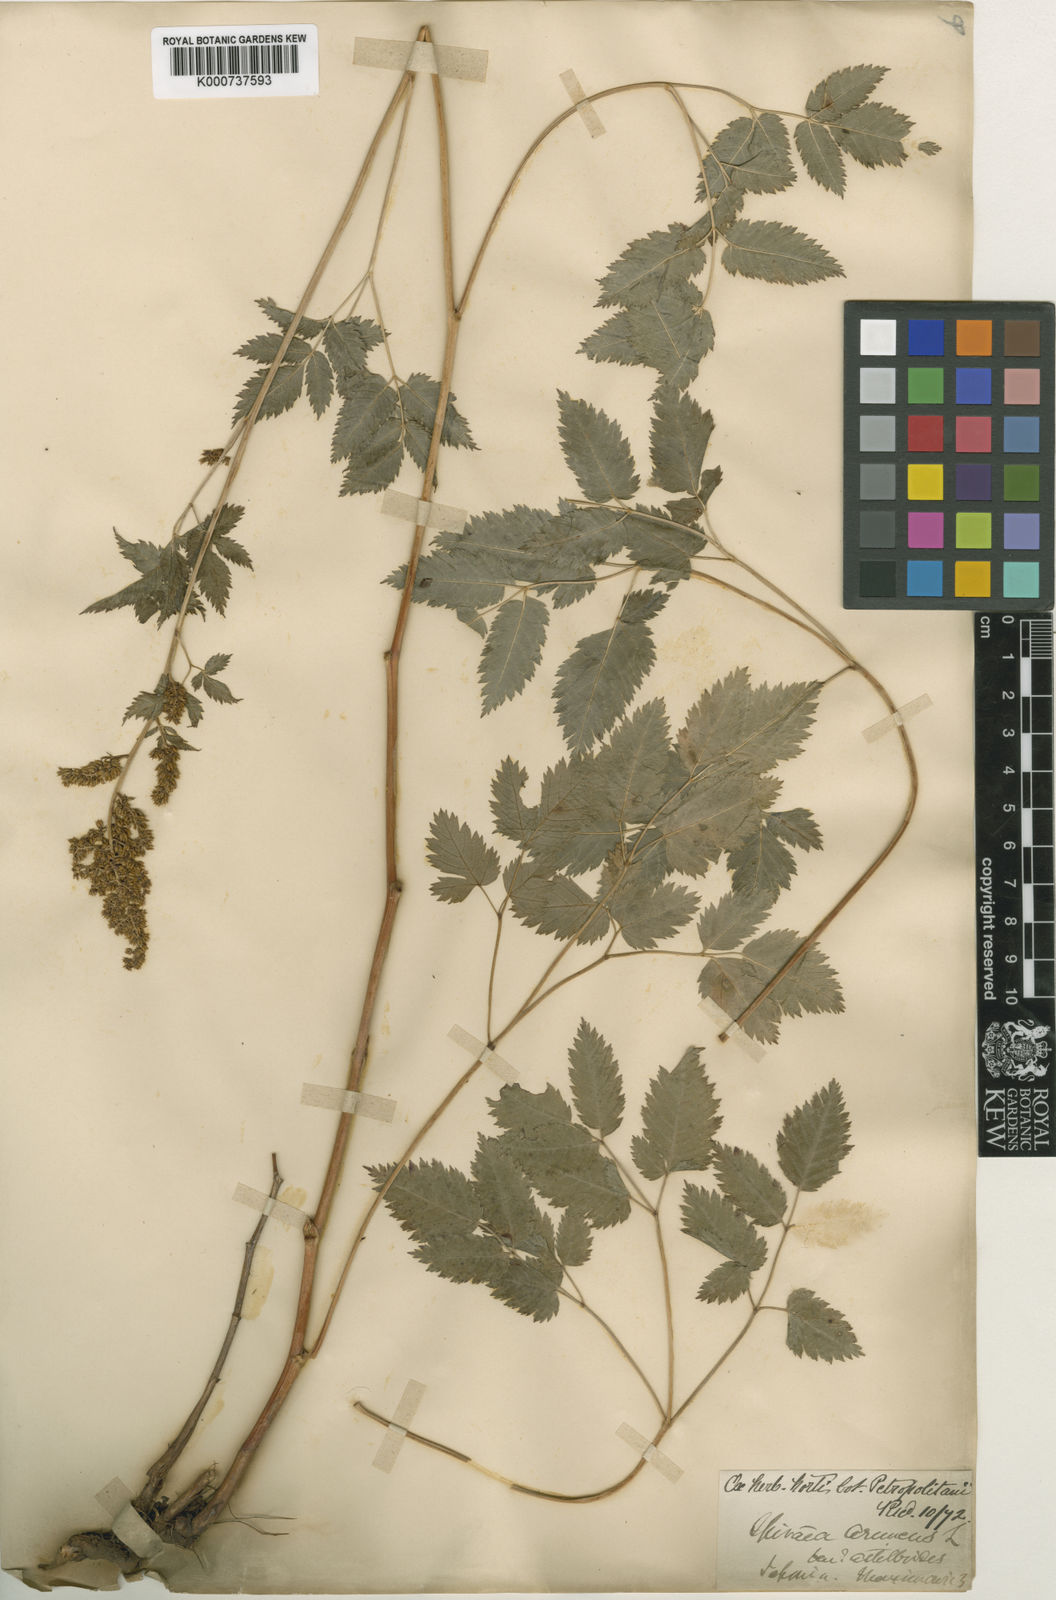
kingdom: Plantae
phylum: Tracheophyta
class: Magnoliopsida
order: Rosales
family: Rosaceae
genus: Aruncus
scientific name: Aruncus sylvester
